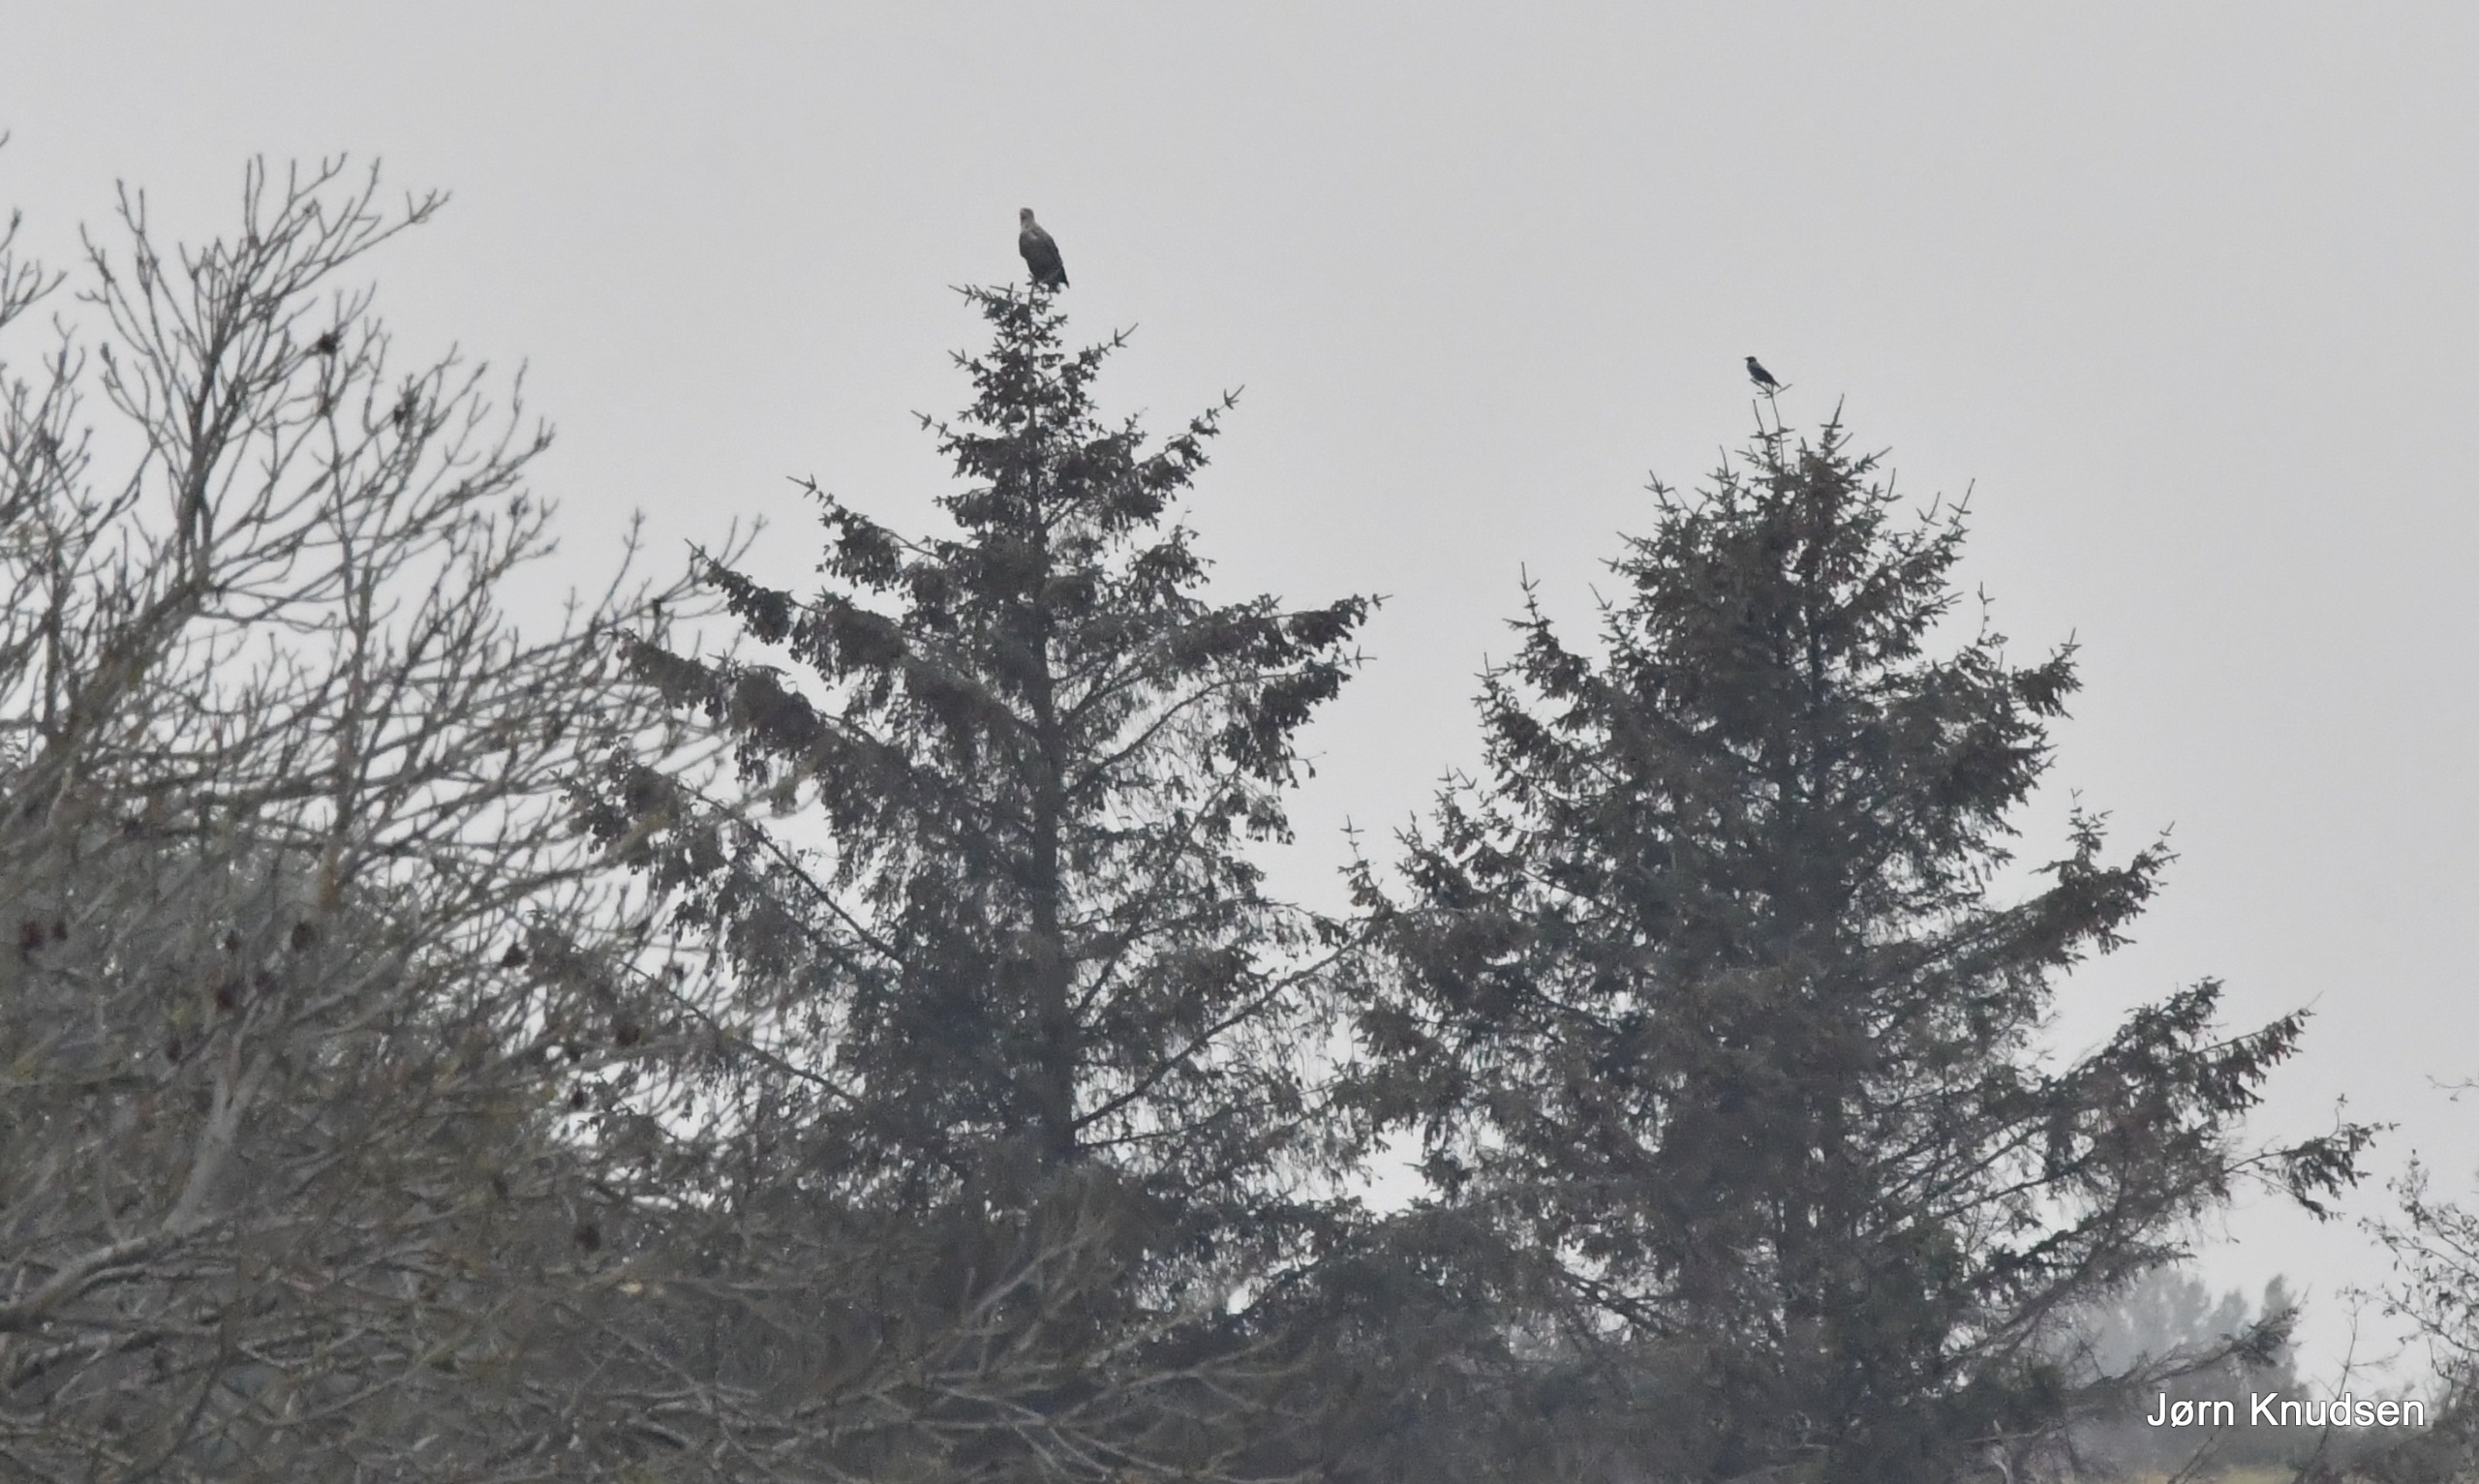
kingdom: Animalia
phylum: Chordata
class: Aves
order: Accipitriformes
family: Accipitridae
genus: Haliaeetus
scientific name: Haliaeetus albicilla
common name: Havørn
